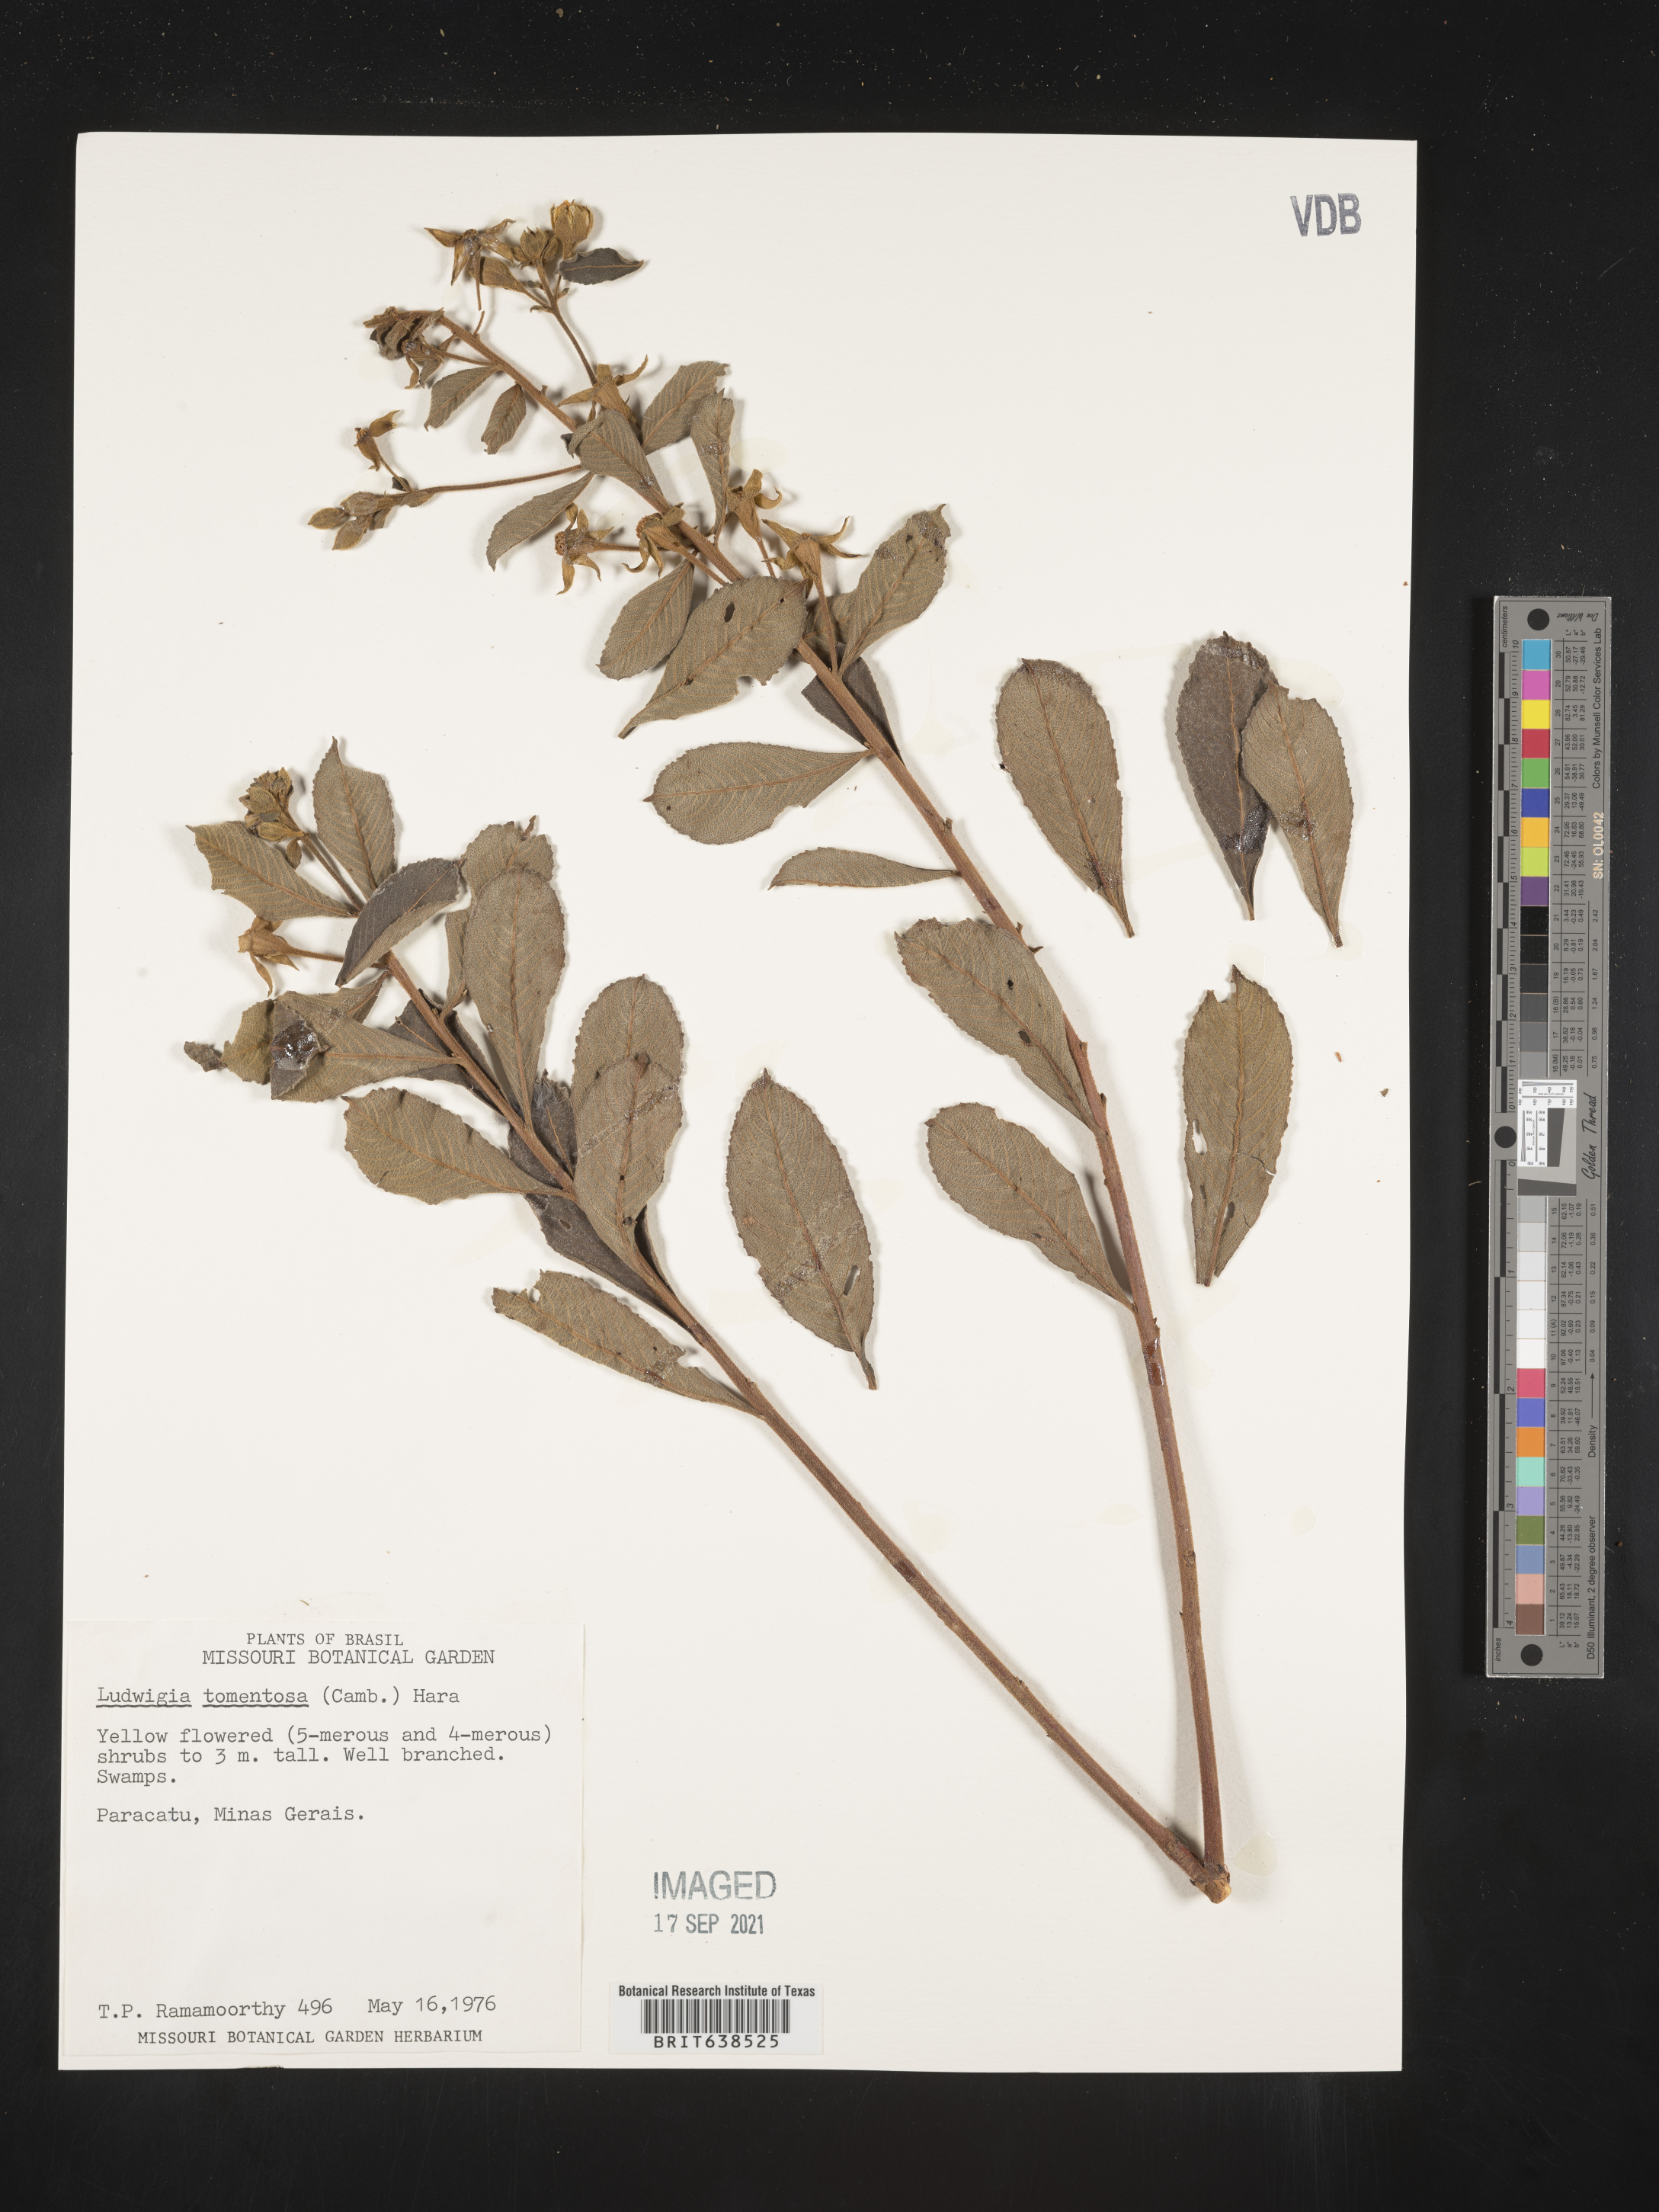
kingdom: Plantae
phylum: Tracheophyta
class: Magnoliopsida
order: Myrtales
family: Onagraceae
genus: Ludwigia
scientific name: Ludwigia
